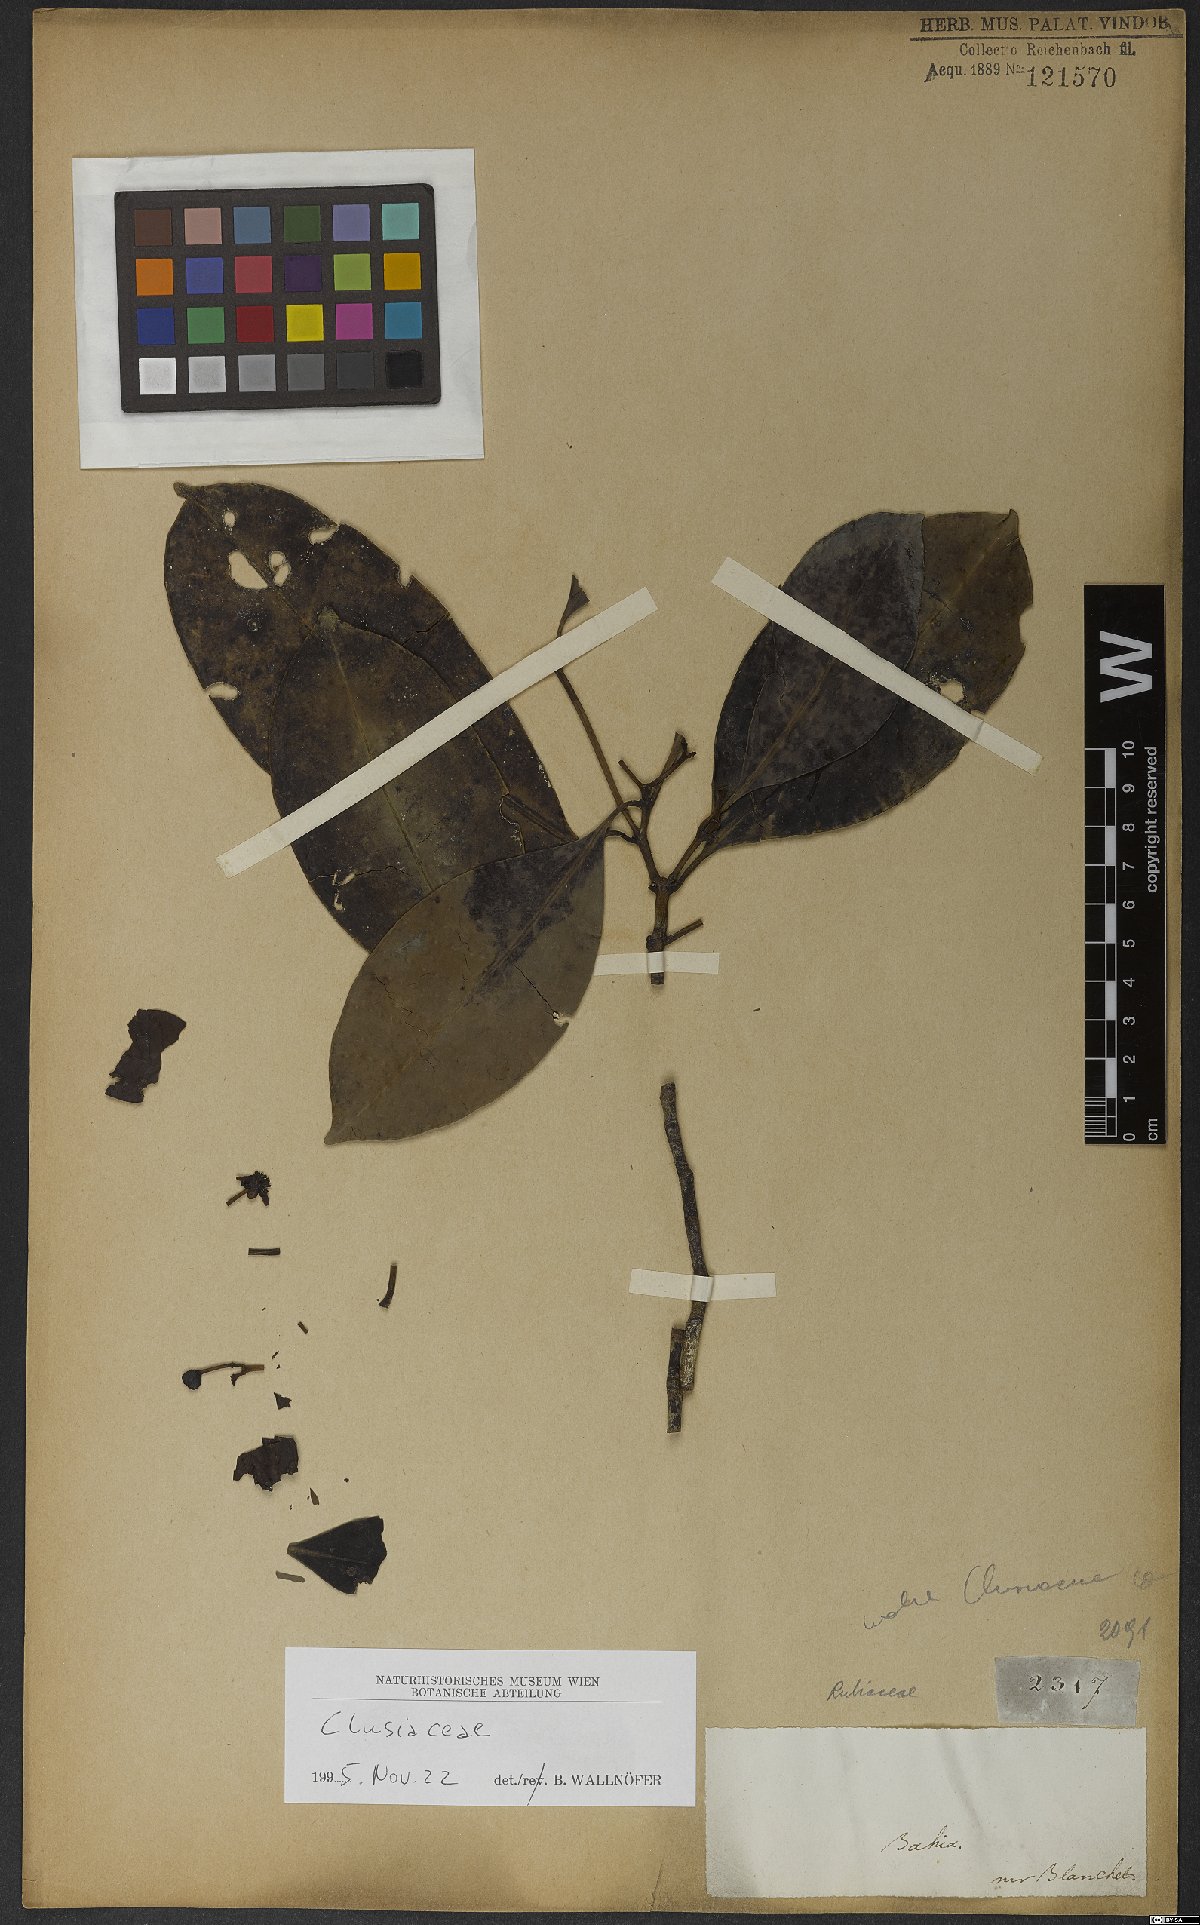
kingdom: Plantae
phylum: Tracheophyta
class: Magnoliopsida
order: Malpighiales
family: Clusiaceae
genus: Tovomita
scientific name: Tovomita brevistaminea
